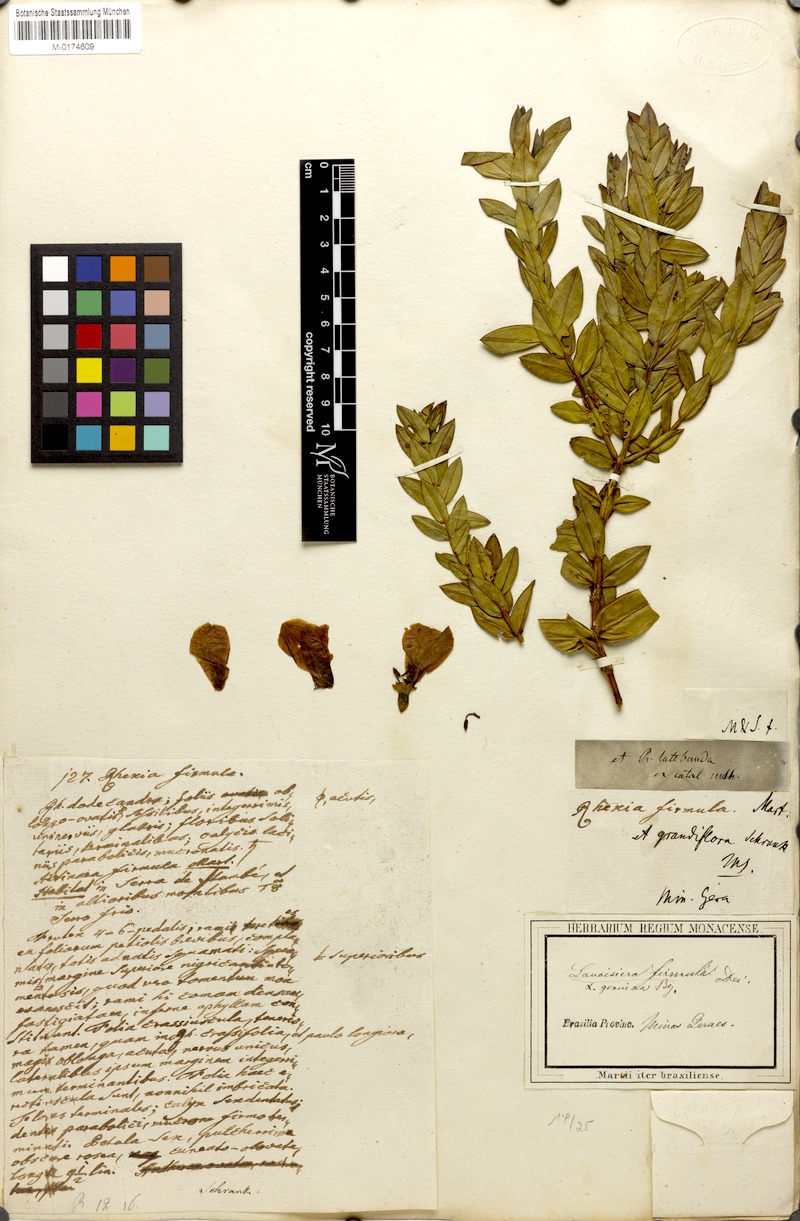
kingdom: Plantae
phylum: Tracheophyta
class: Magnoliopsida
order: Myrtales
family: Melastomataceae
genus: Microlicia
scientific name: Microlicia firmula
